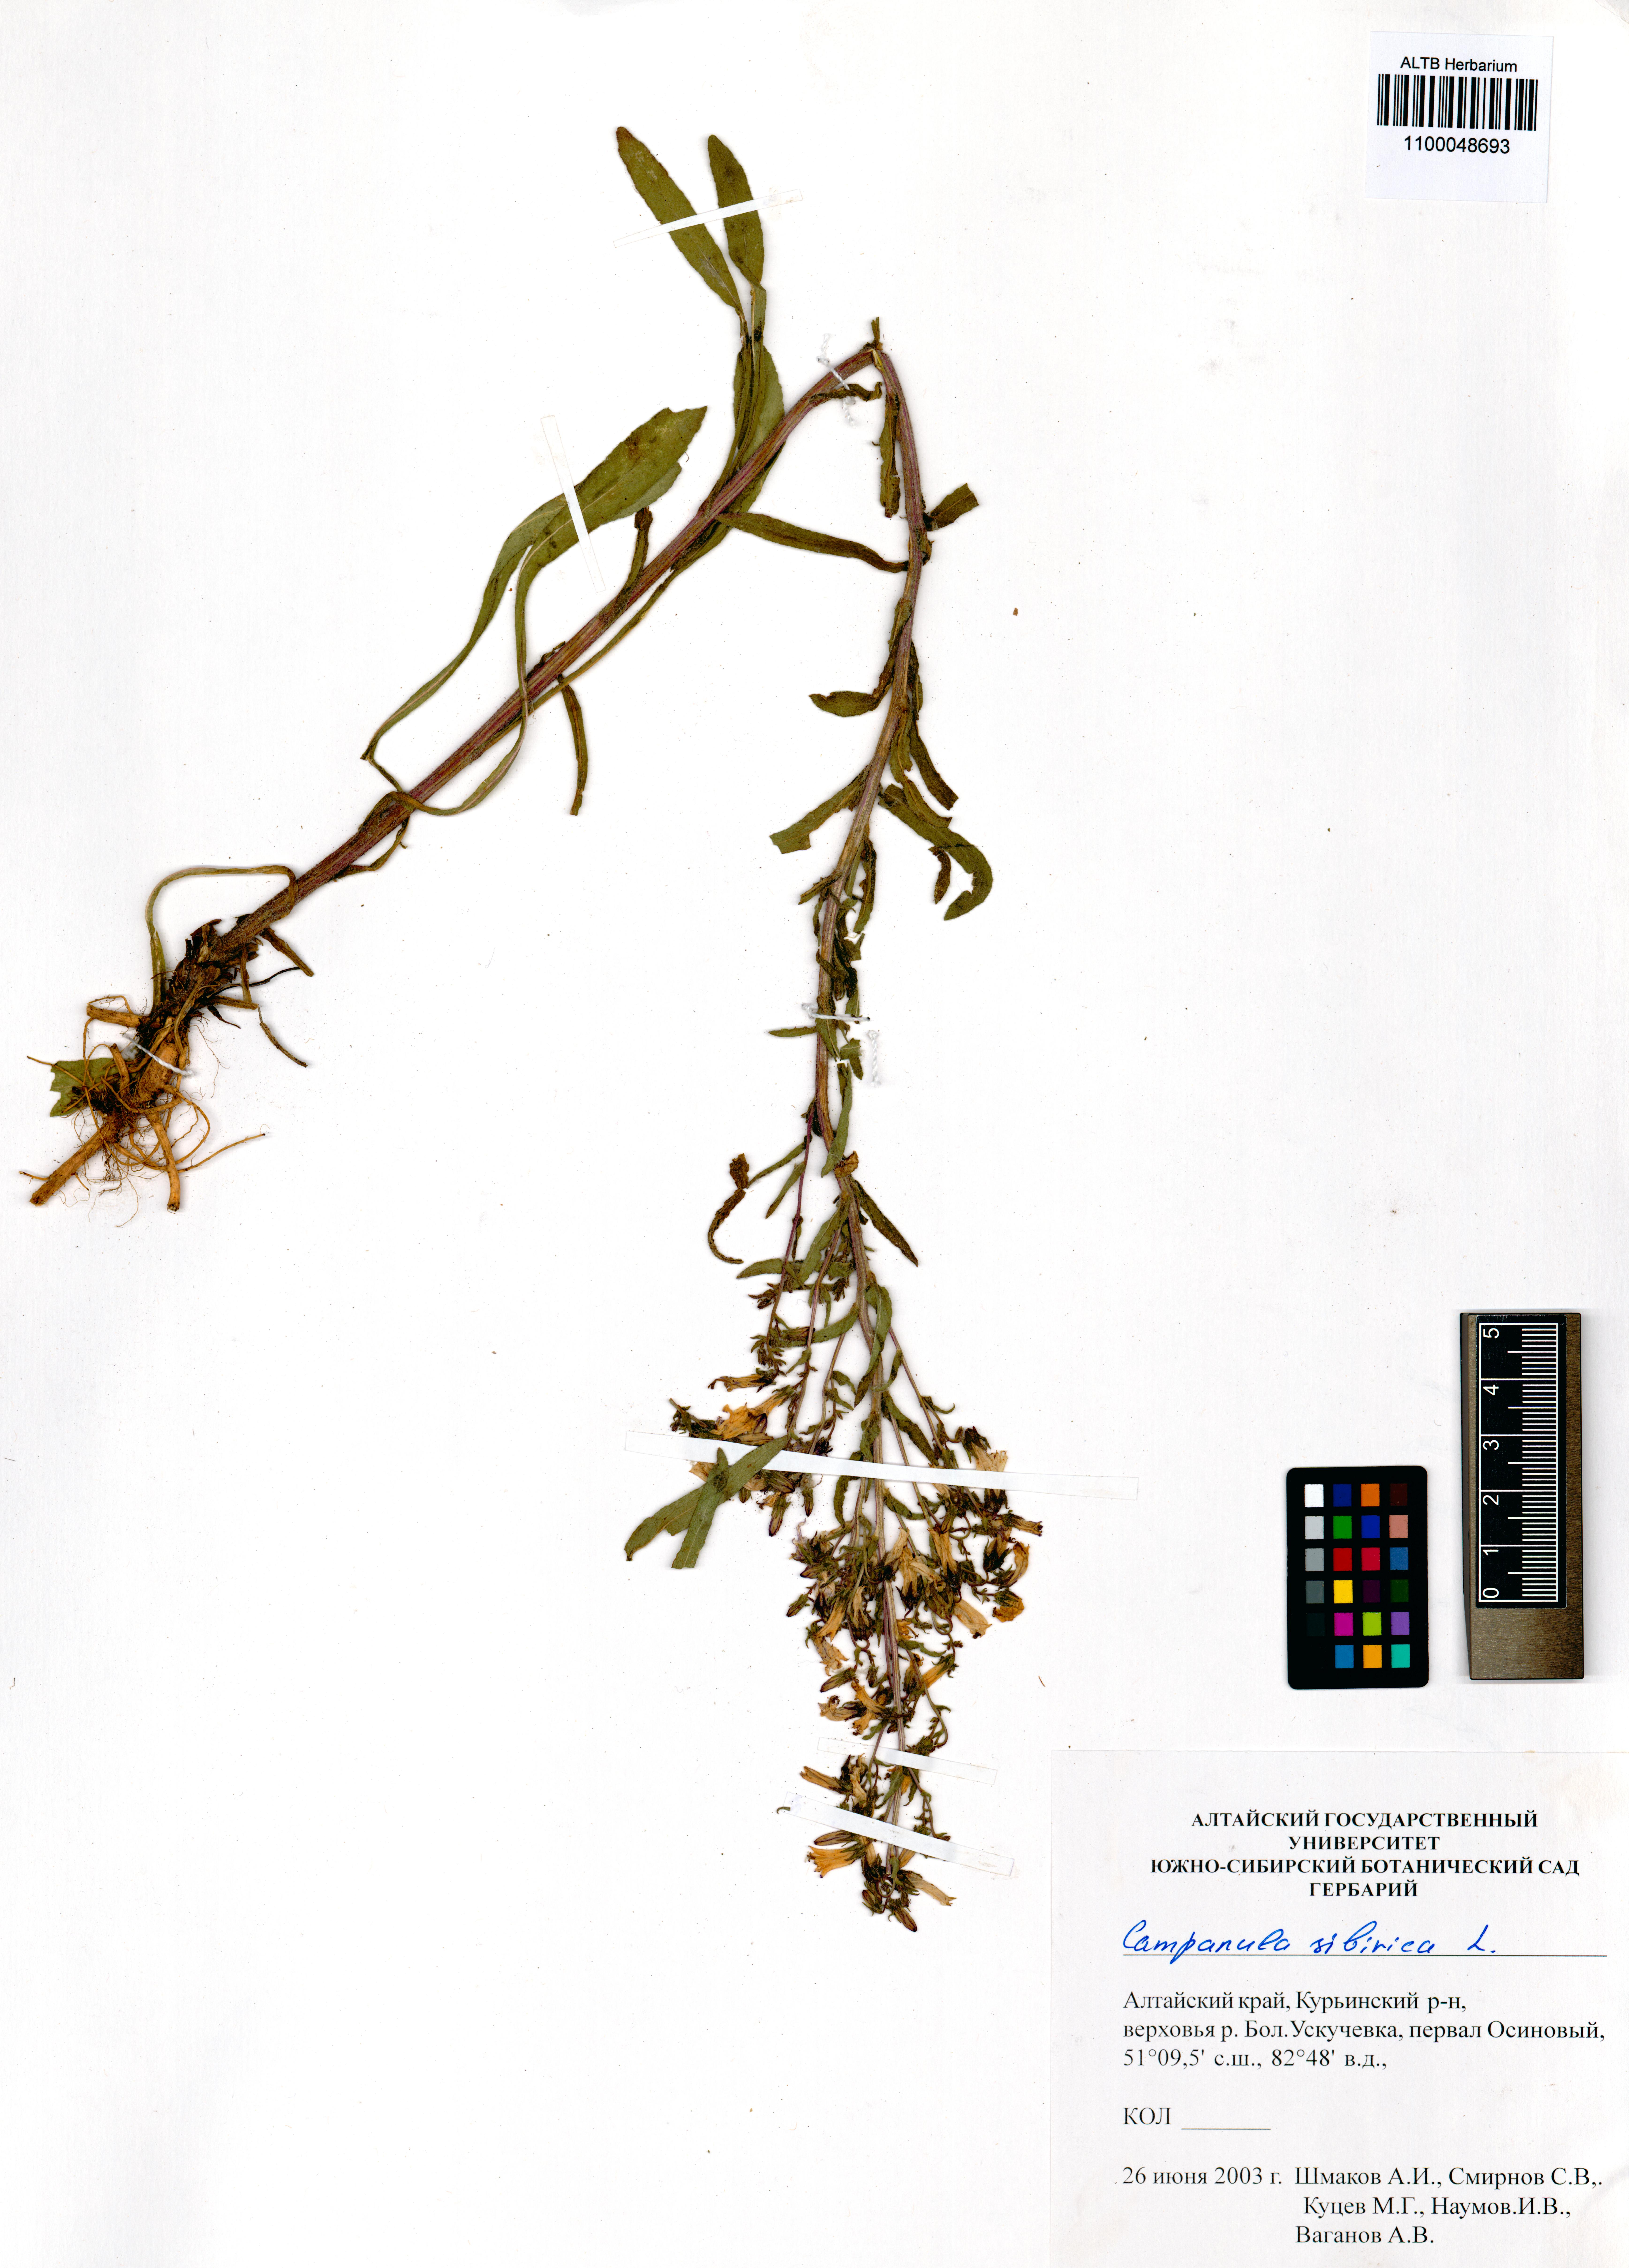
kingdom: Plantae
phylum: Tracheophyta
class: Magnoliopsida
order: Asterales
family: Campanulaceae
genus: Campanula
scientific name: Campanula sibirica
